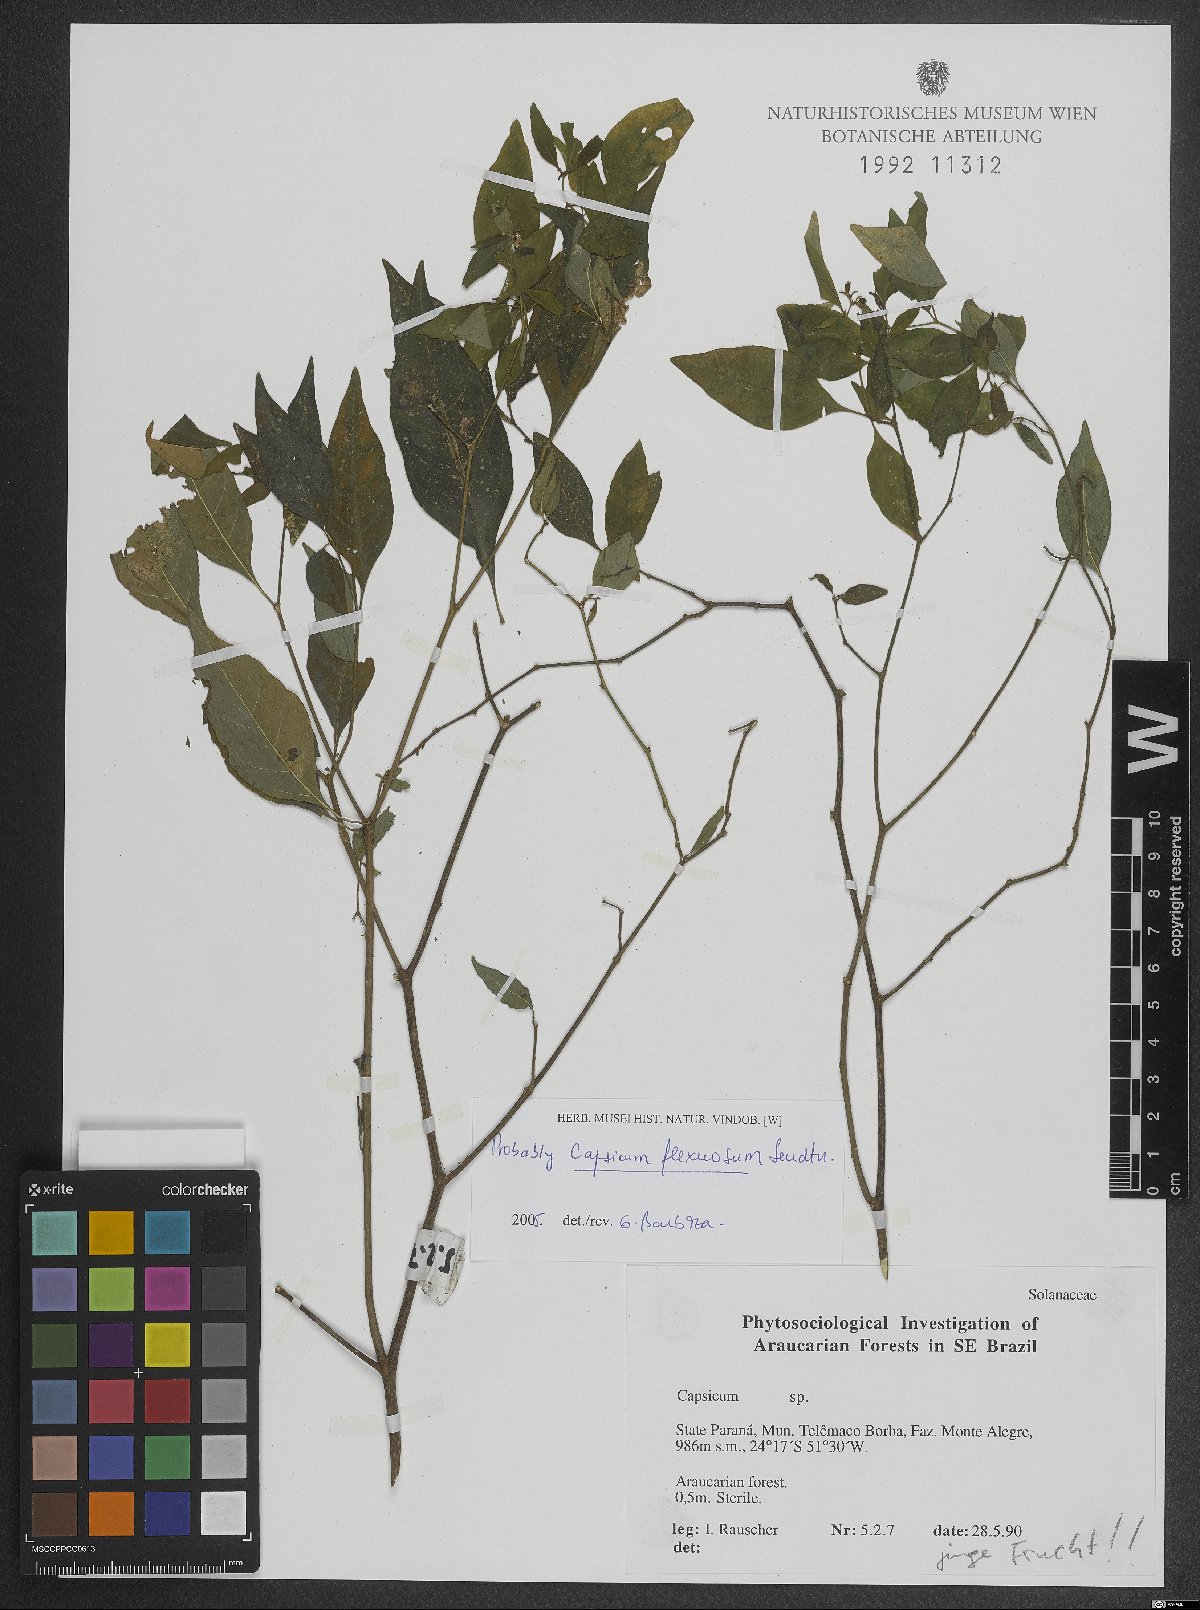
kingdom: Plantae
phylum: Tracheophyta
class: Magnoliopsida
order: Solanales
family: Solanaceae
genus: Capsicum
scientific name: Capsicum flexuosum
